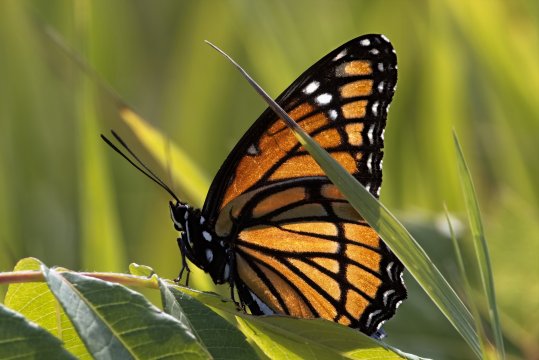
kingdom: Animalia
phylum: Arthropoda
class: Insecta
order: Lepidoptera
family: Nymphalidae
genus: Limenitis
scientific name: Limenitis archippus
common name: Viceroy
